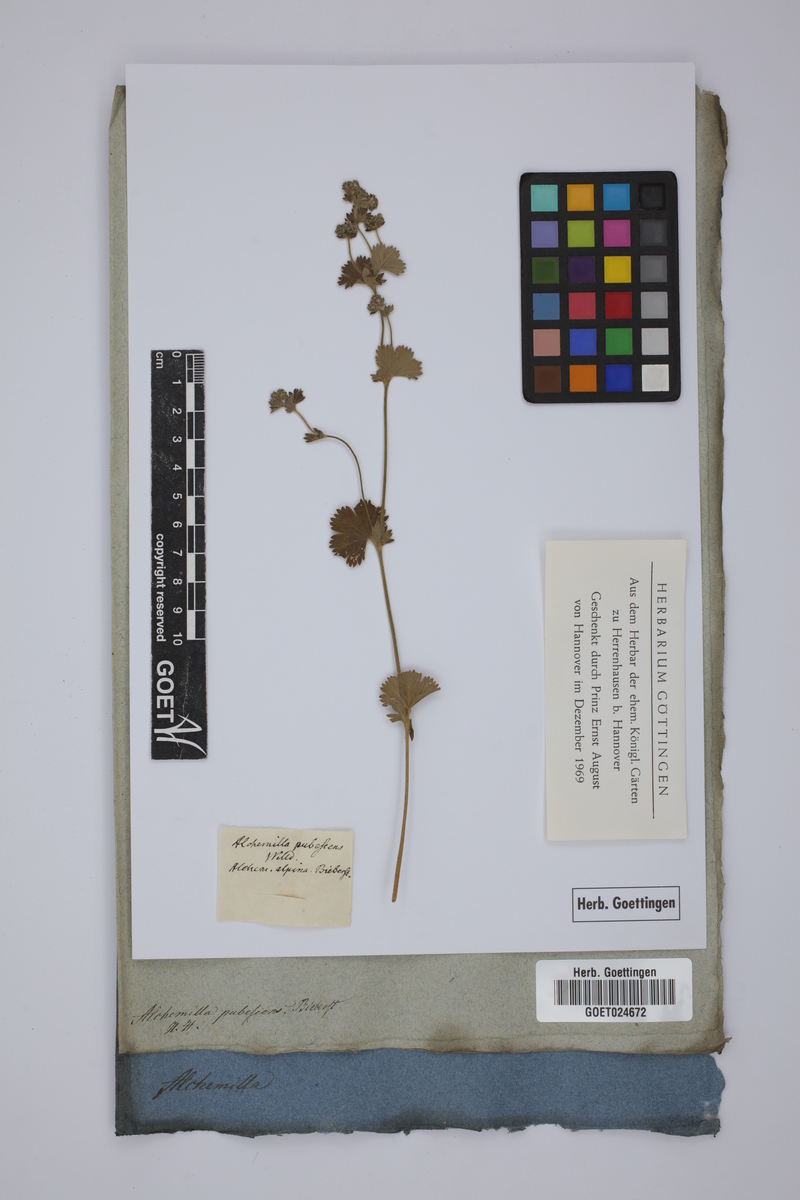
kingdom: Plantae
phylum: Tracheophyta
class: Magnoliopsida
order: Rosales
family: Rosaceae
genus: Alchemilla
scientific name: Alchemilla
